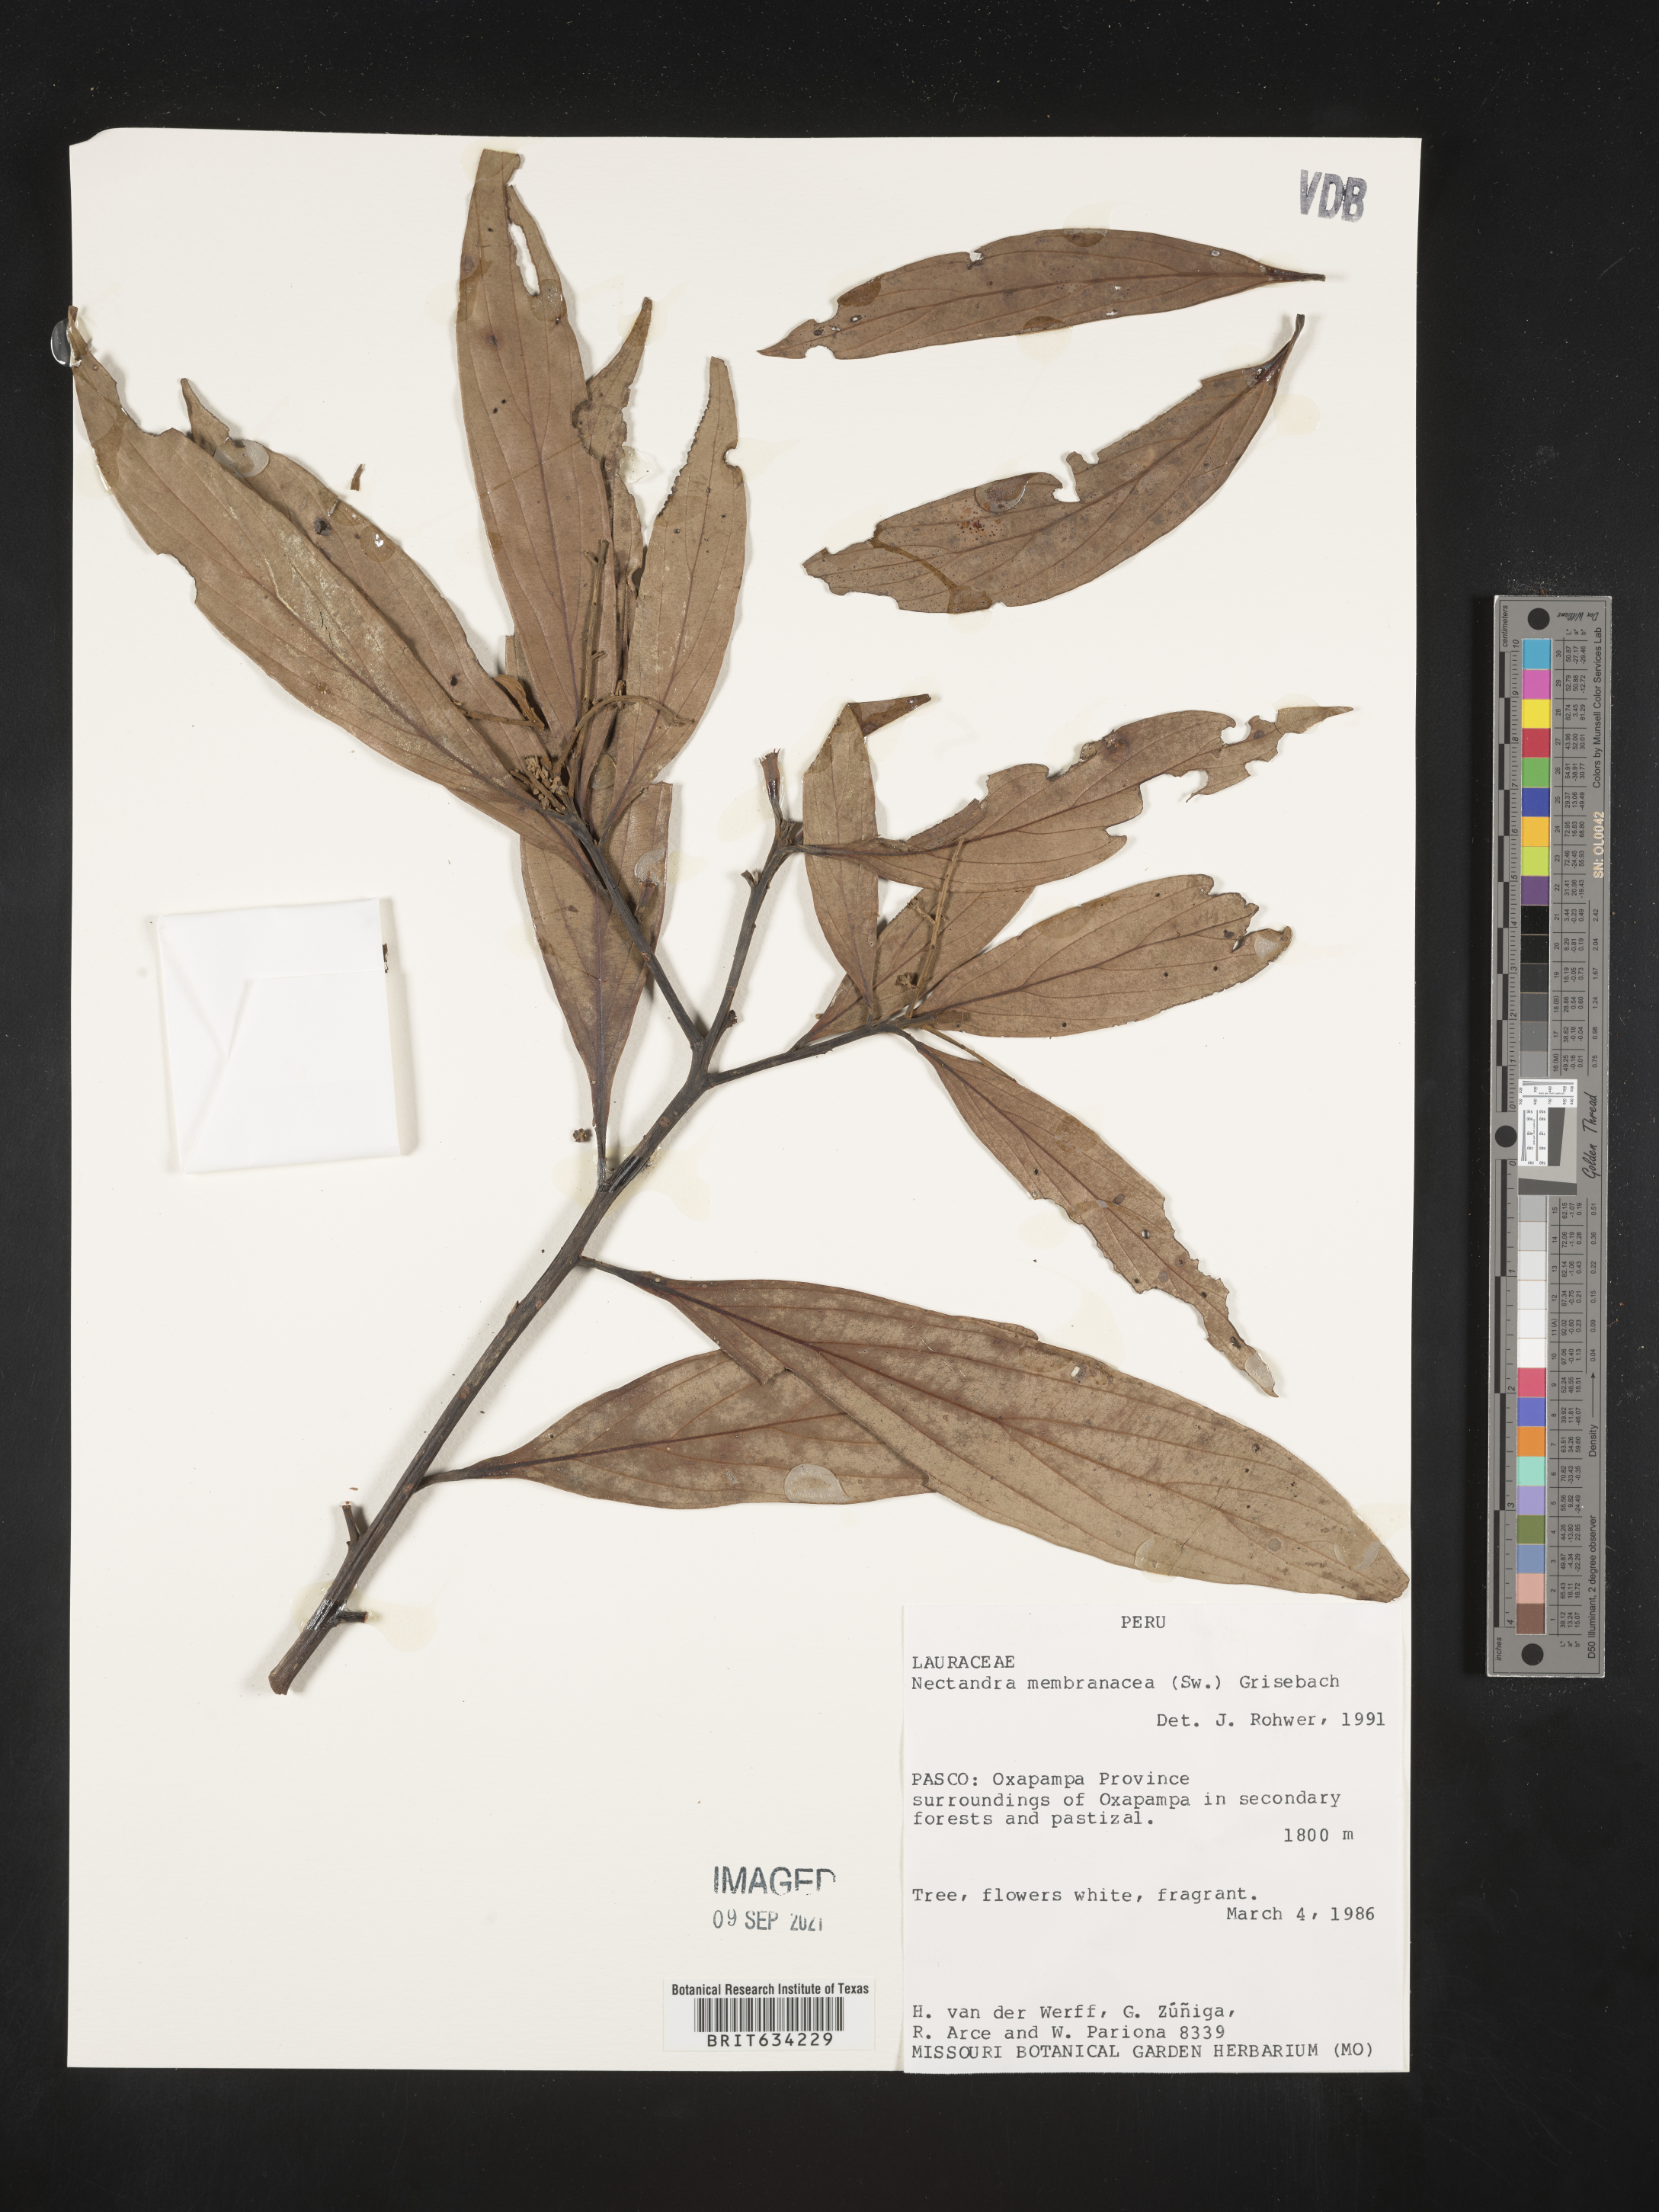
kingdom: Plantae
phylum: Tracheophyta
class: Magnoliopsida
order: Laurales
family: Lauraceae
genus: Nectandra
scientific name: Nectandra
